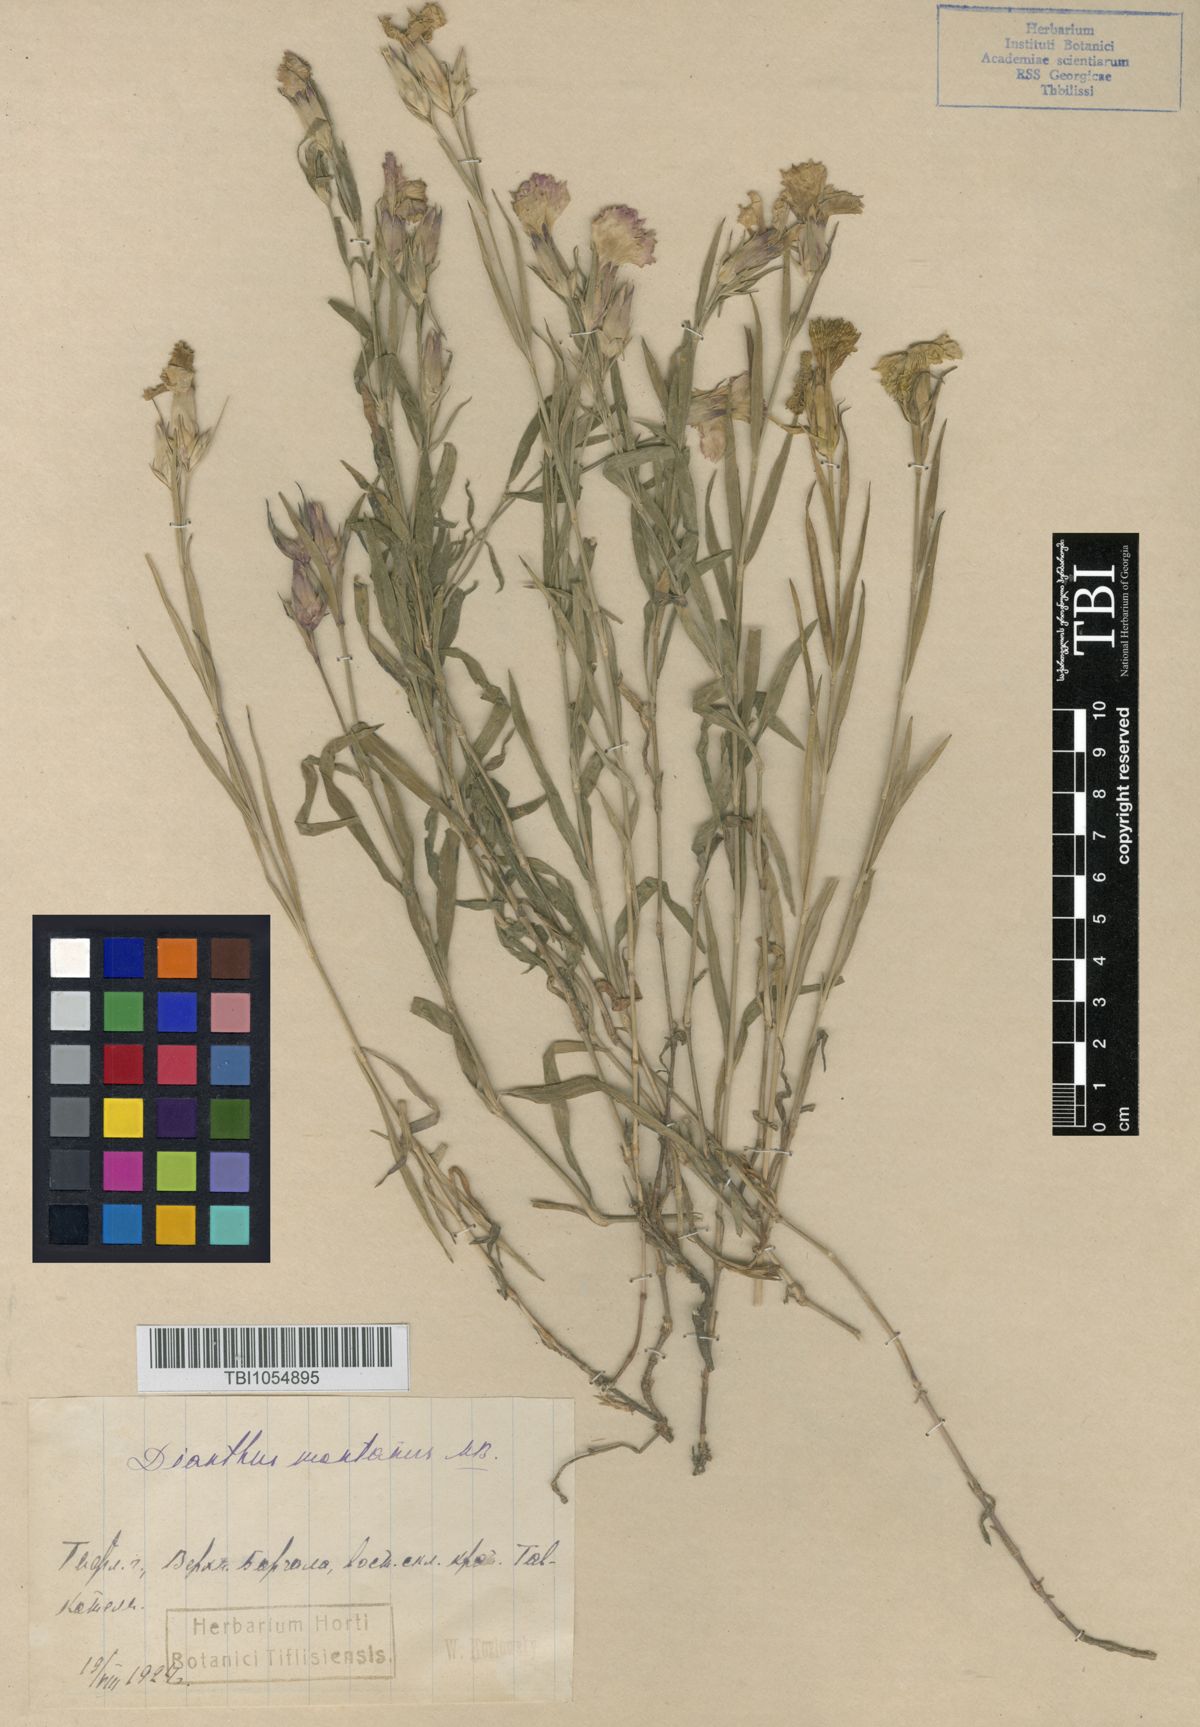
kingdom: Plantae
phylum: Tracheophyta
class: Magnoliopsida
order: Caryophyllales
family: Caryophyllaceae
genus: Dianthus
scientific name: Dianthus caucaseus
